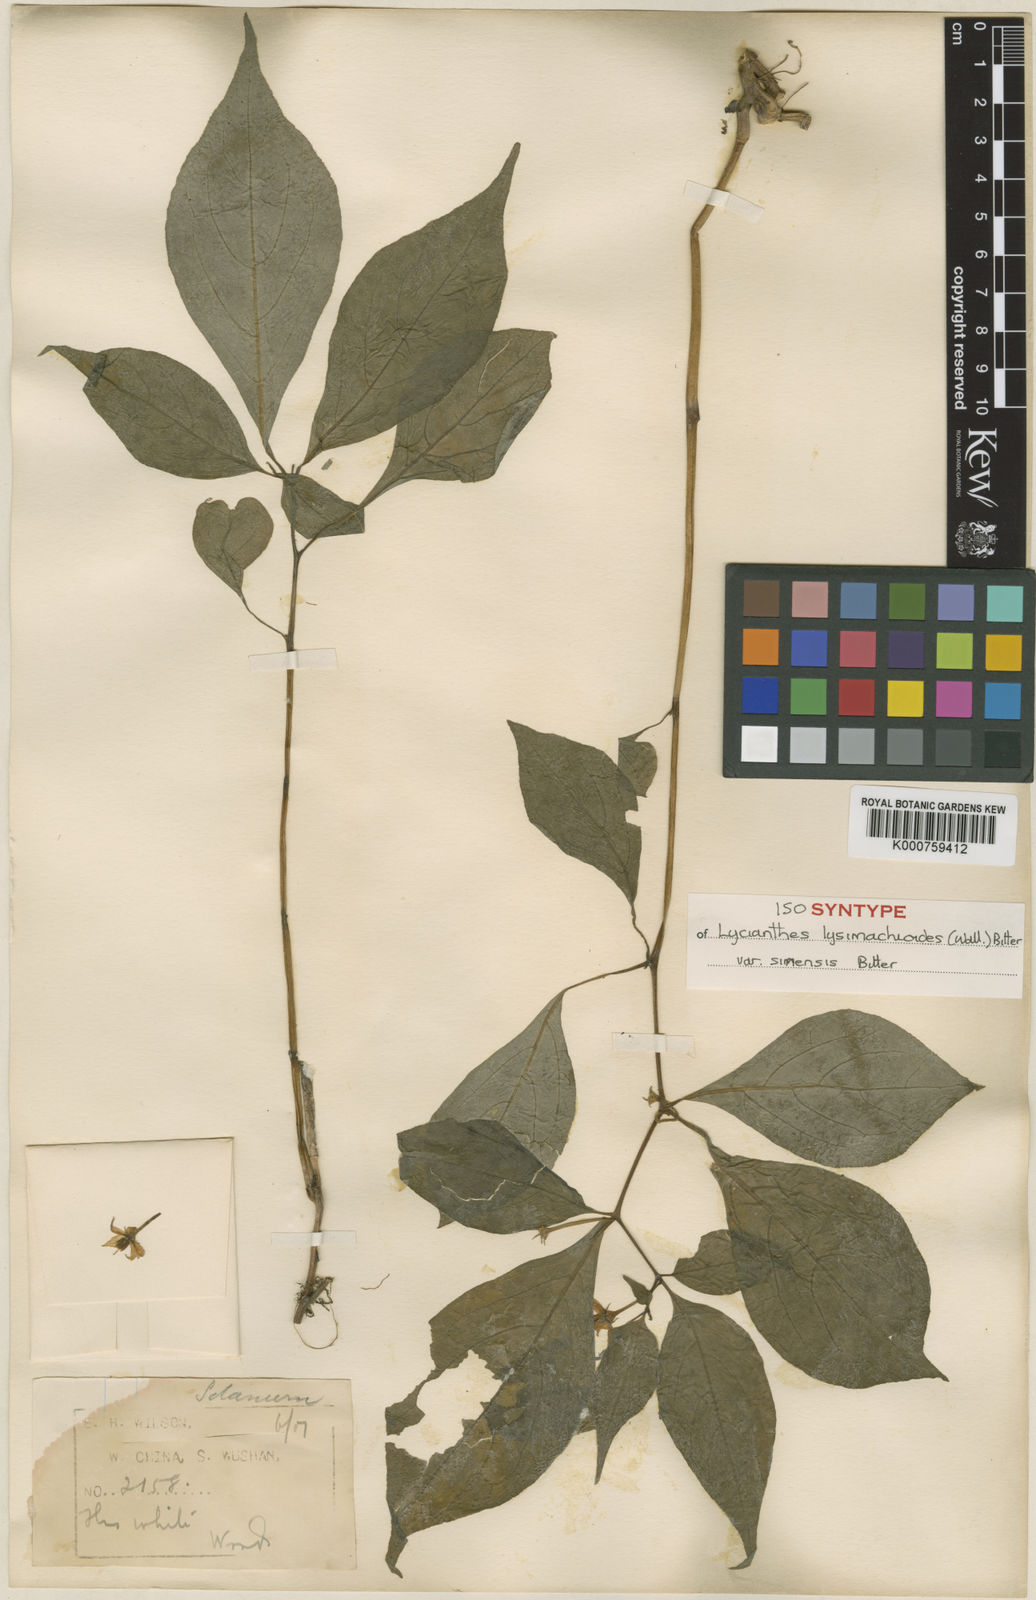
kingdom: Plantae
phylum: Tracheophyta
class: Magnoliopsida
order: Solanales
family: Solanaceae
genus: Lycianthes
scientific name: Lycianthes lysimachioides
